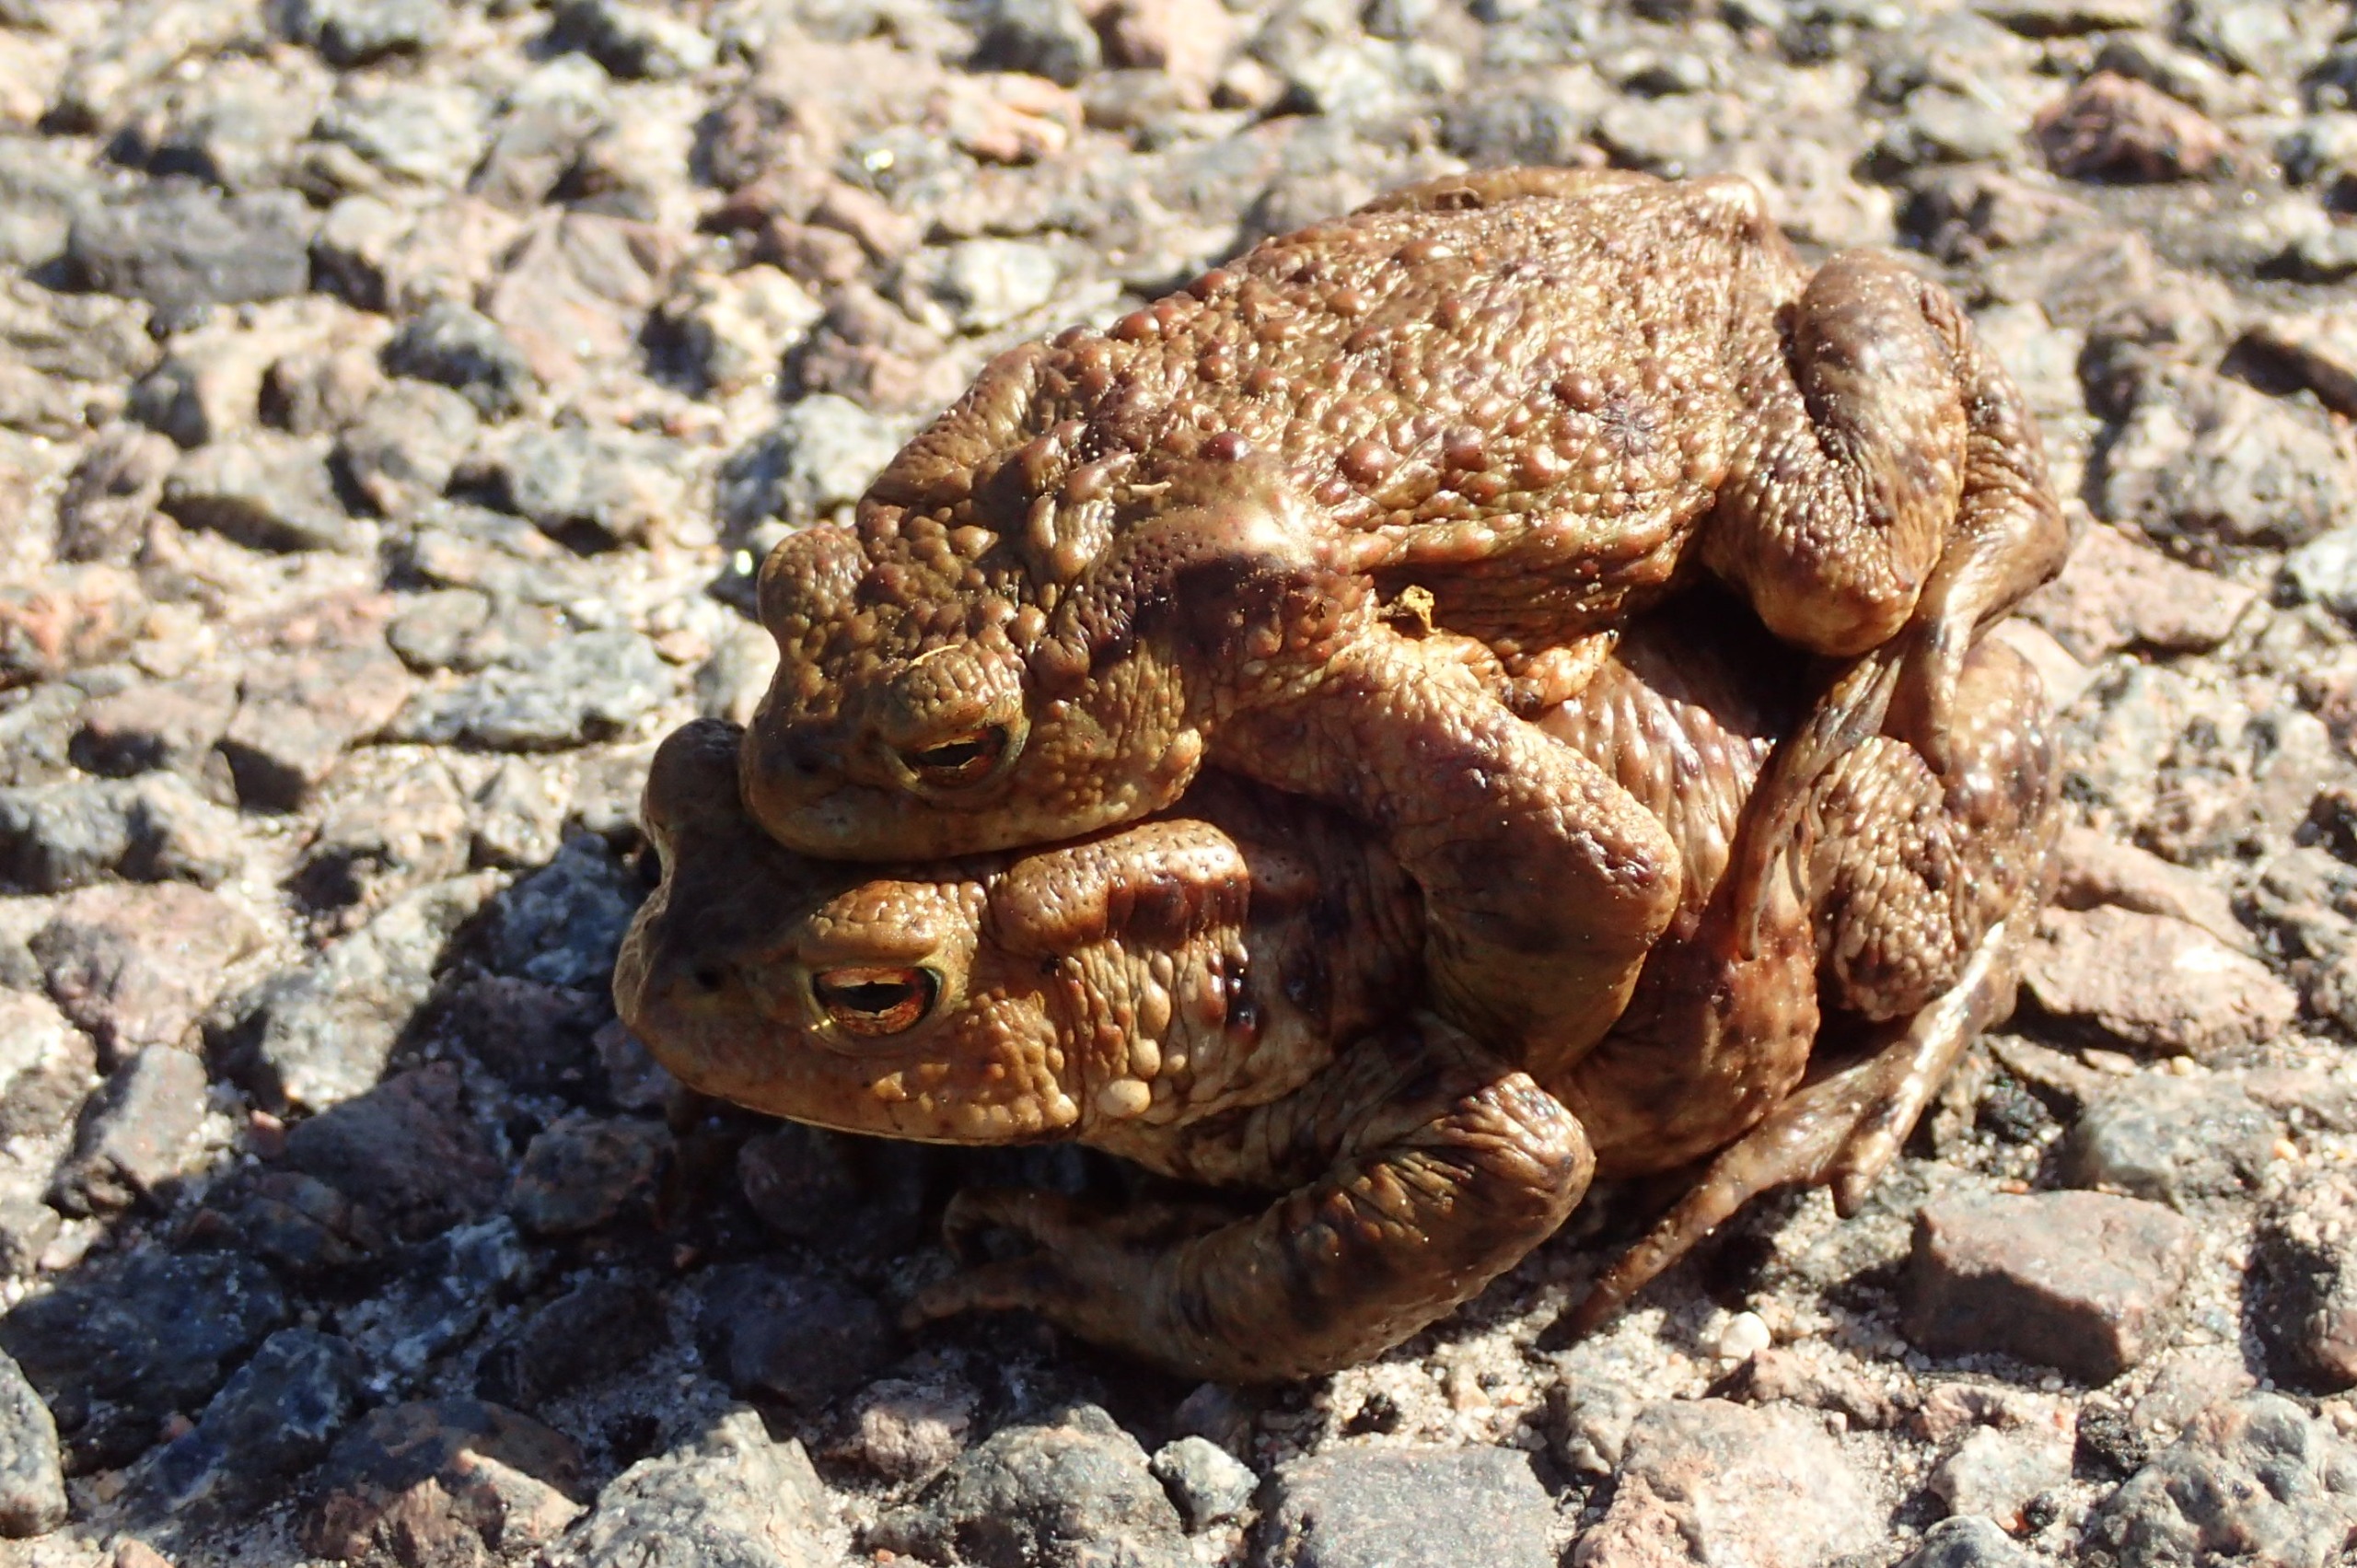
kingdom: Animalia
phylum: Chordata
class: Amphibia
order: Anura
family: Bufonidae
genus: Bufo
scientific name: Bufo bufo
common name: Skrubtudse
